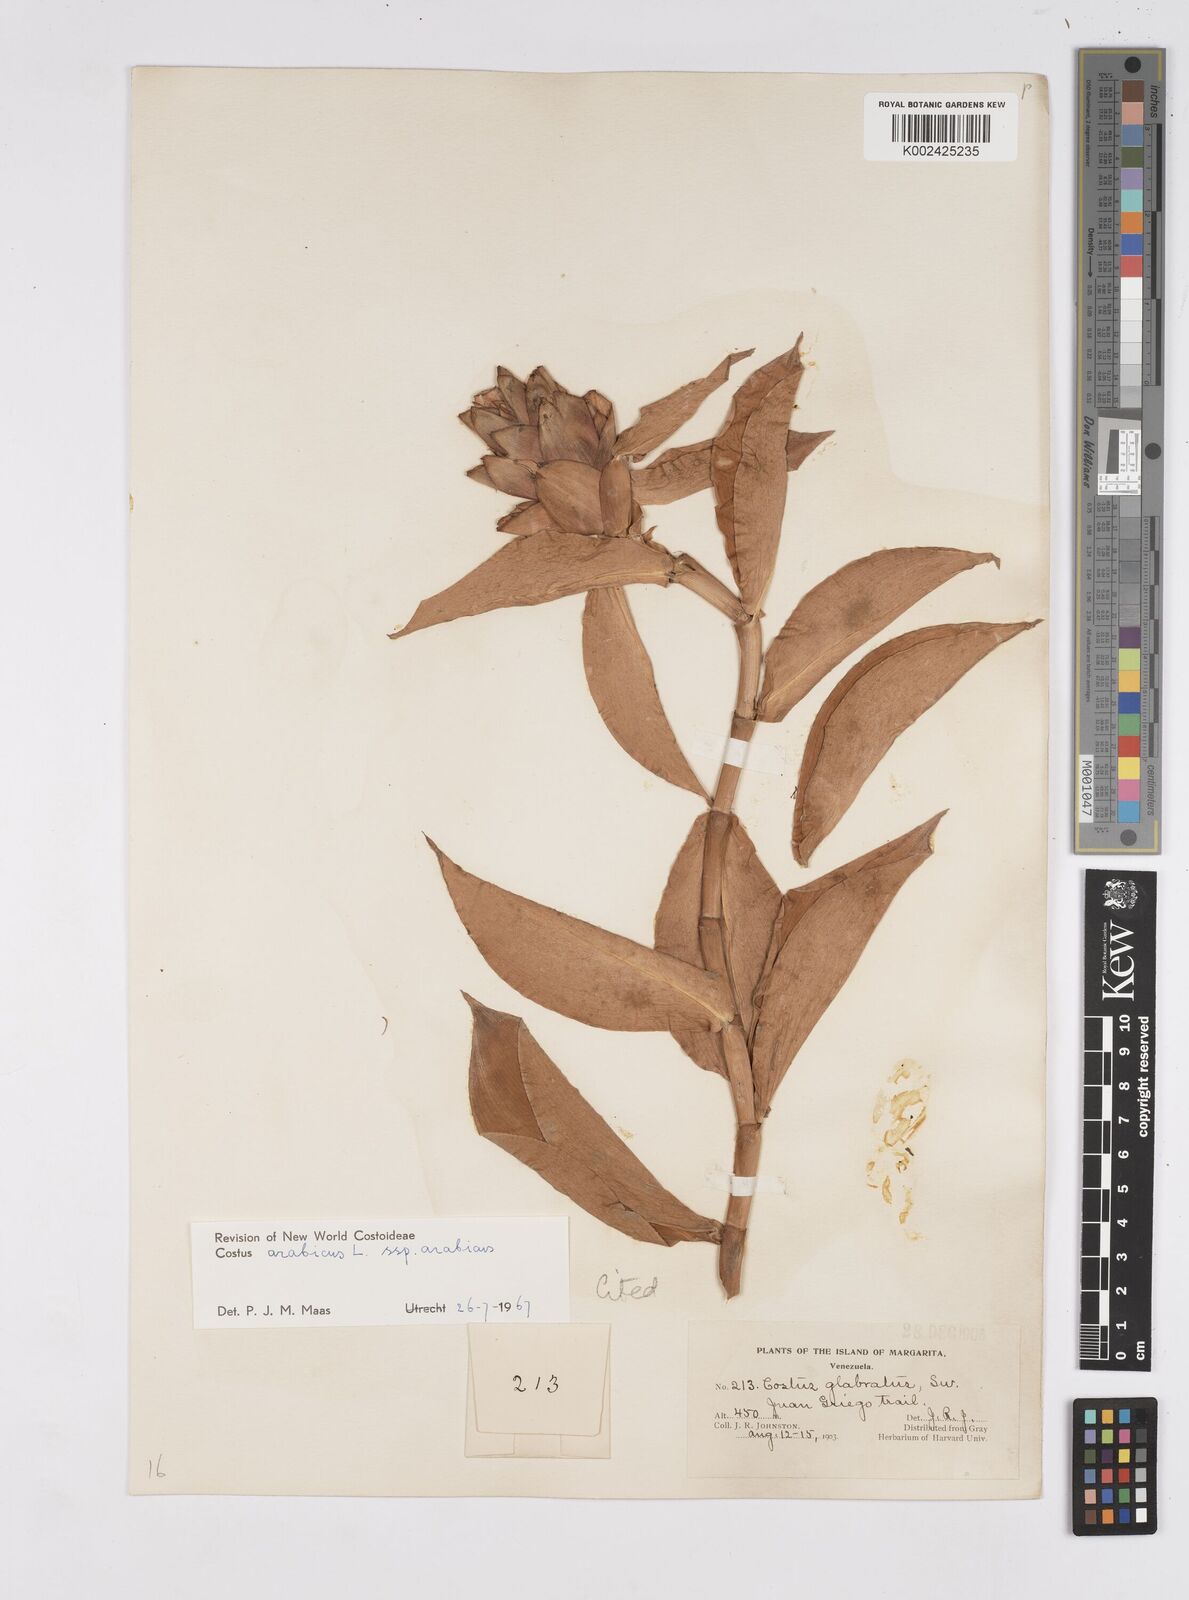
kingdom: Plantae
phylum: Tracheophyta
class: Liliopsida
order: Zingiberales
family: Costaceae
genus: Costus
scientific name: Costus arabicus
